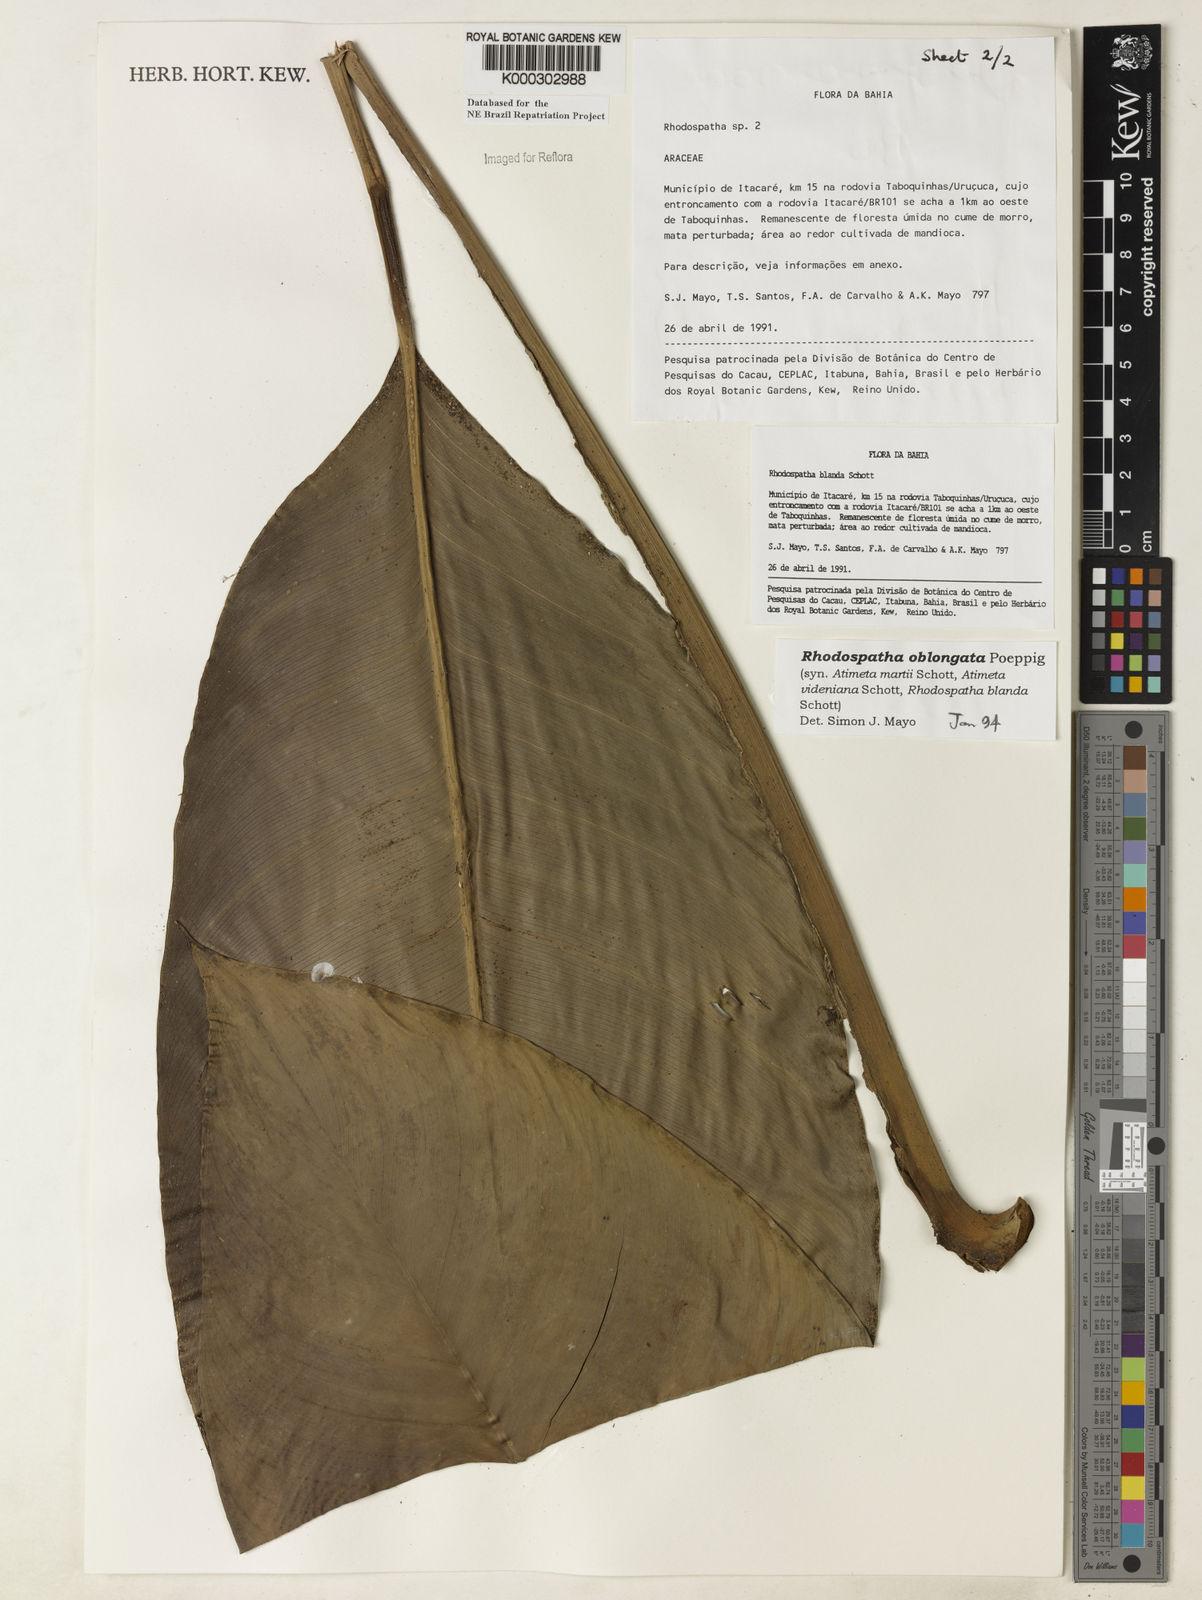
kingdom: Plantae
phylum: Tracheophyta
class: Liliopsida
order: Alismatales
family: Araceae
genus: Rhodospatha
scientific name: Rhodospatha oblongata
